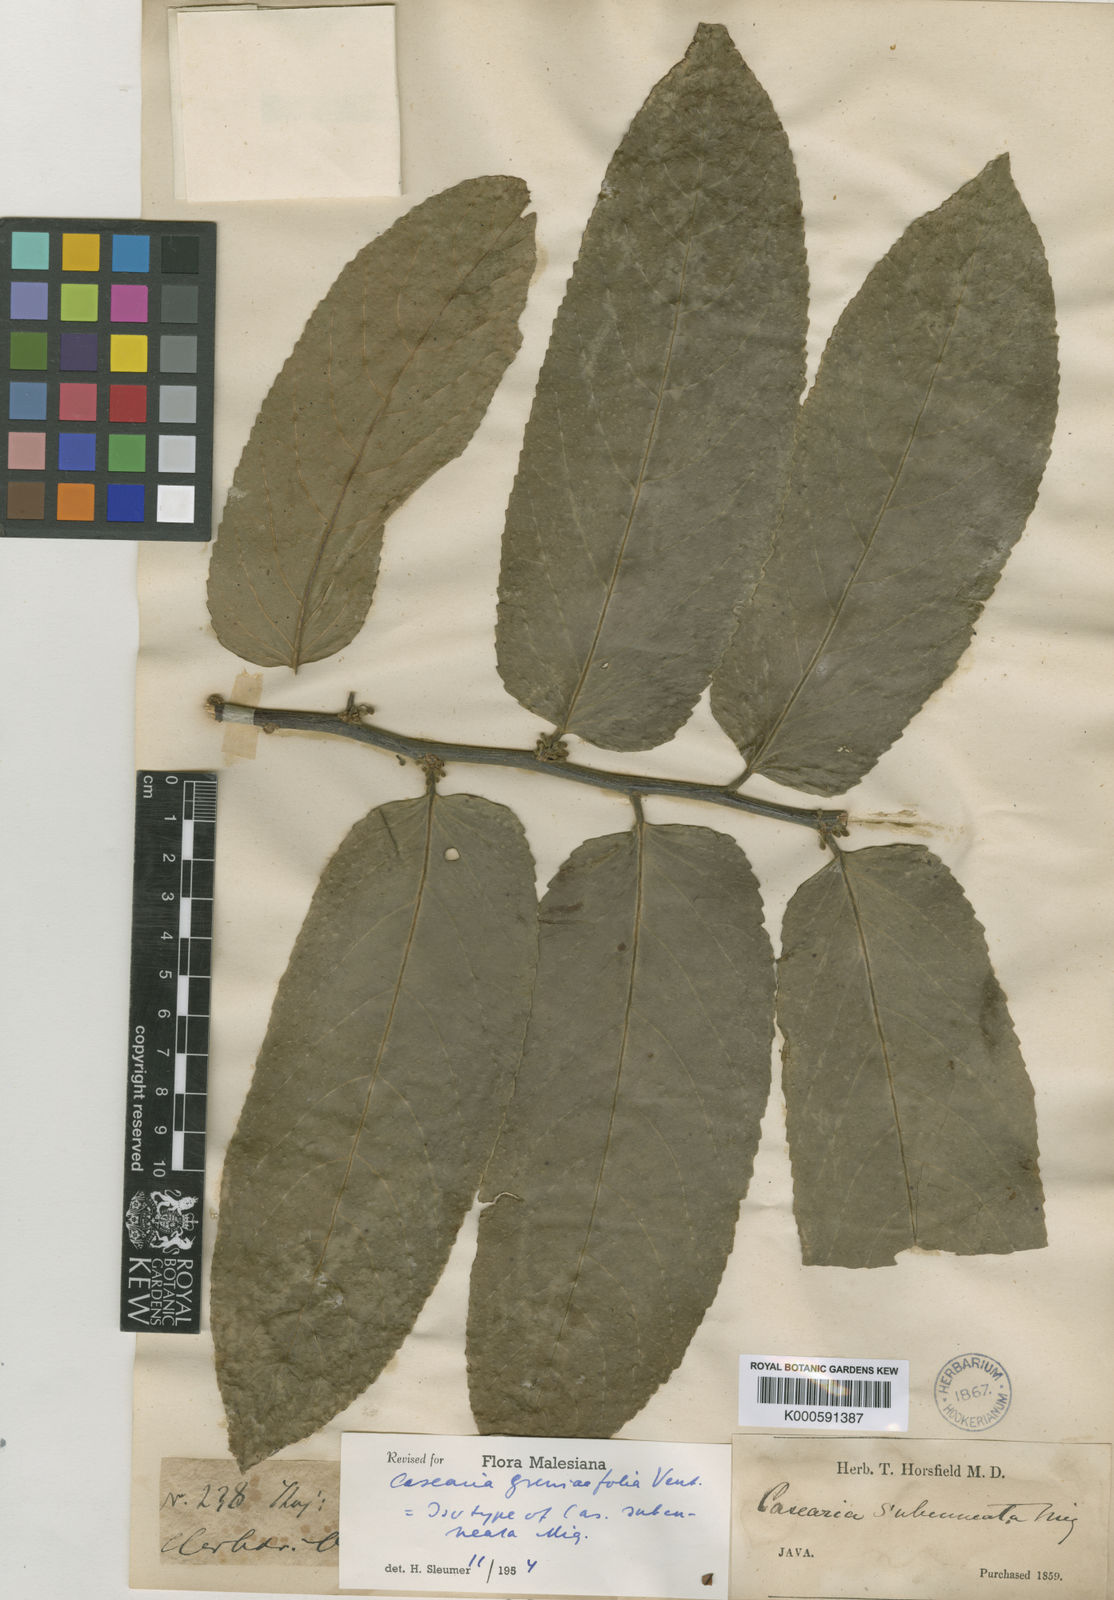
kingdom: Plantae
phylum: Tracheophyta
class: Magnoliopsida
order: Malpighiales
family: Salicaceae
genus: Casearia
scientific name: Casearia grewiifolia
